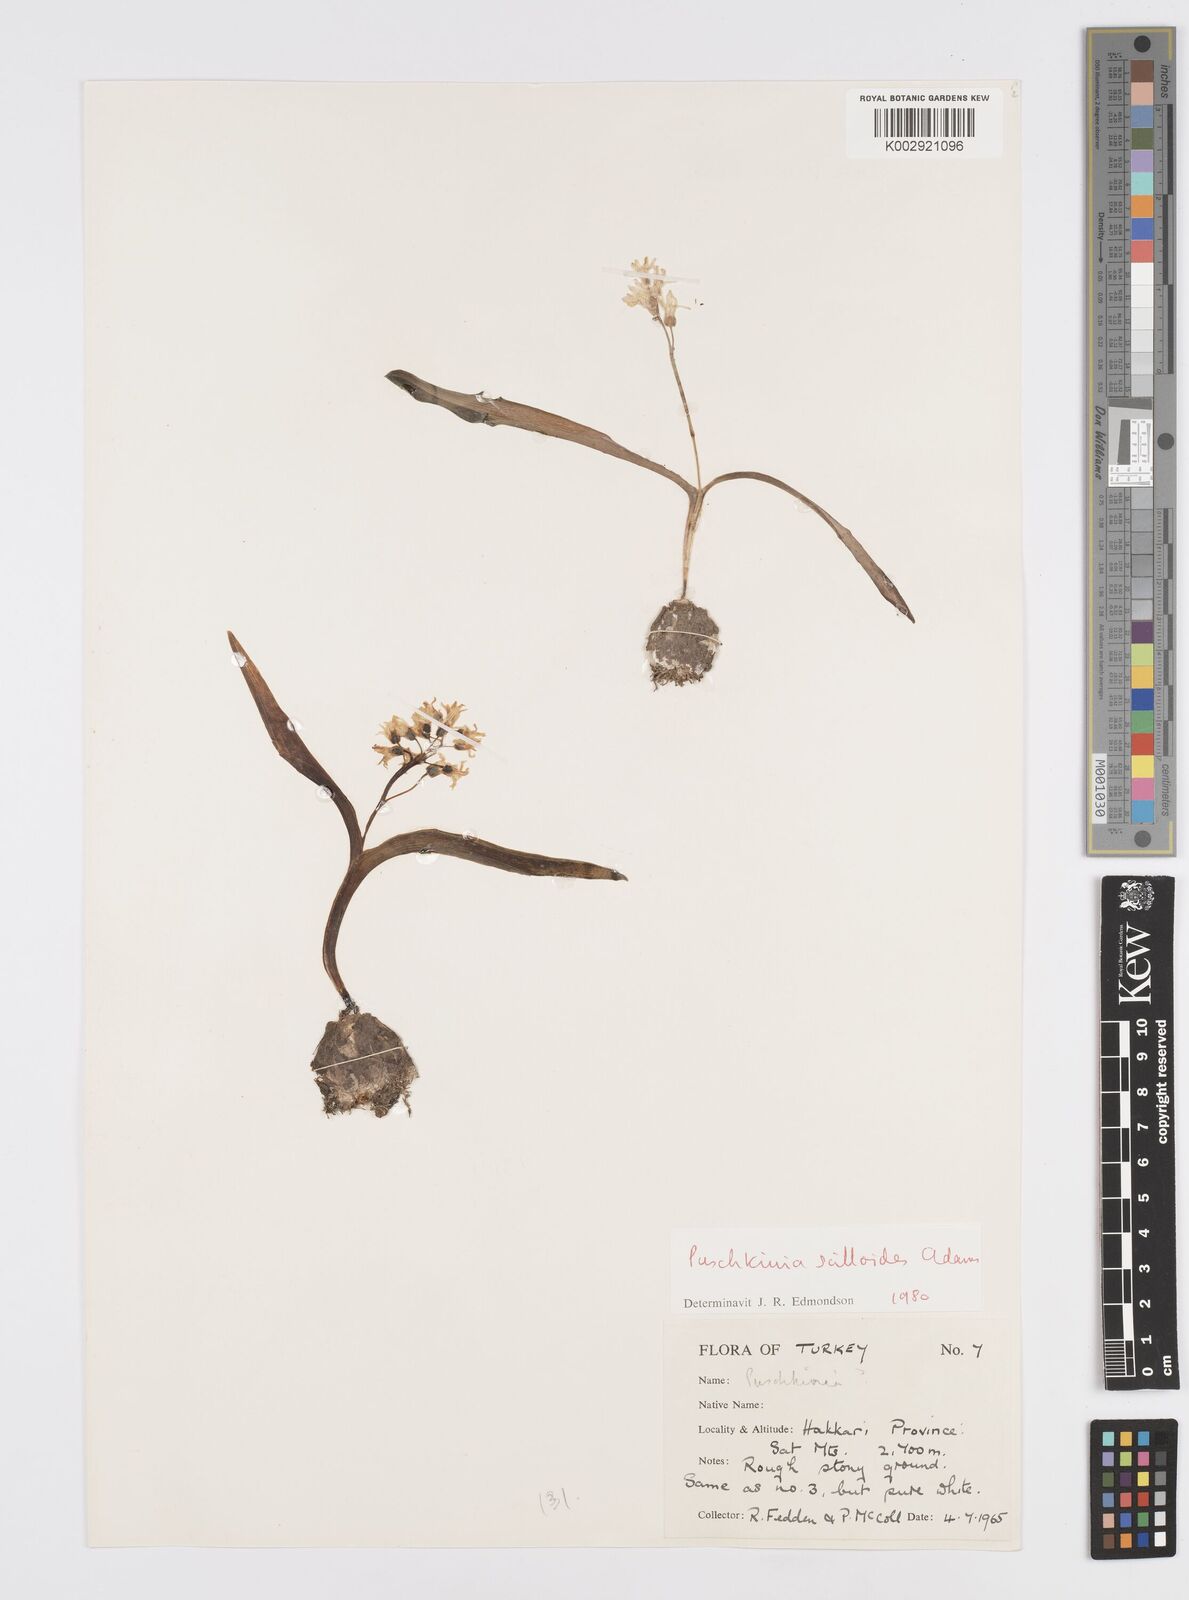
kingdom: Plantae
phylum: Tracheophyta
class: Liliopsida
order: Asparagales
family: Asparagaceae
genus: Puschkinia
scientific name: Puschkinia scilloides
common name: Striped squill
